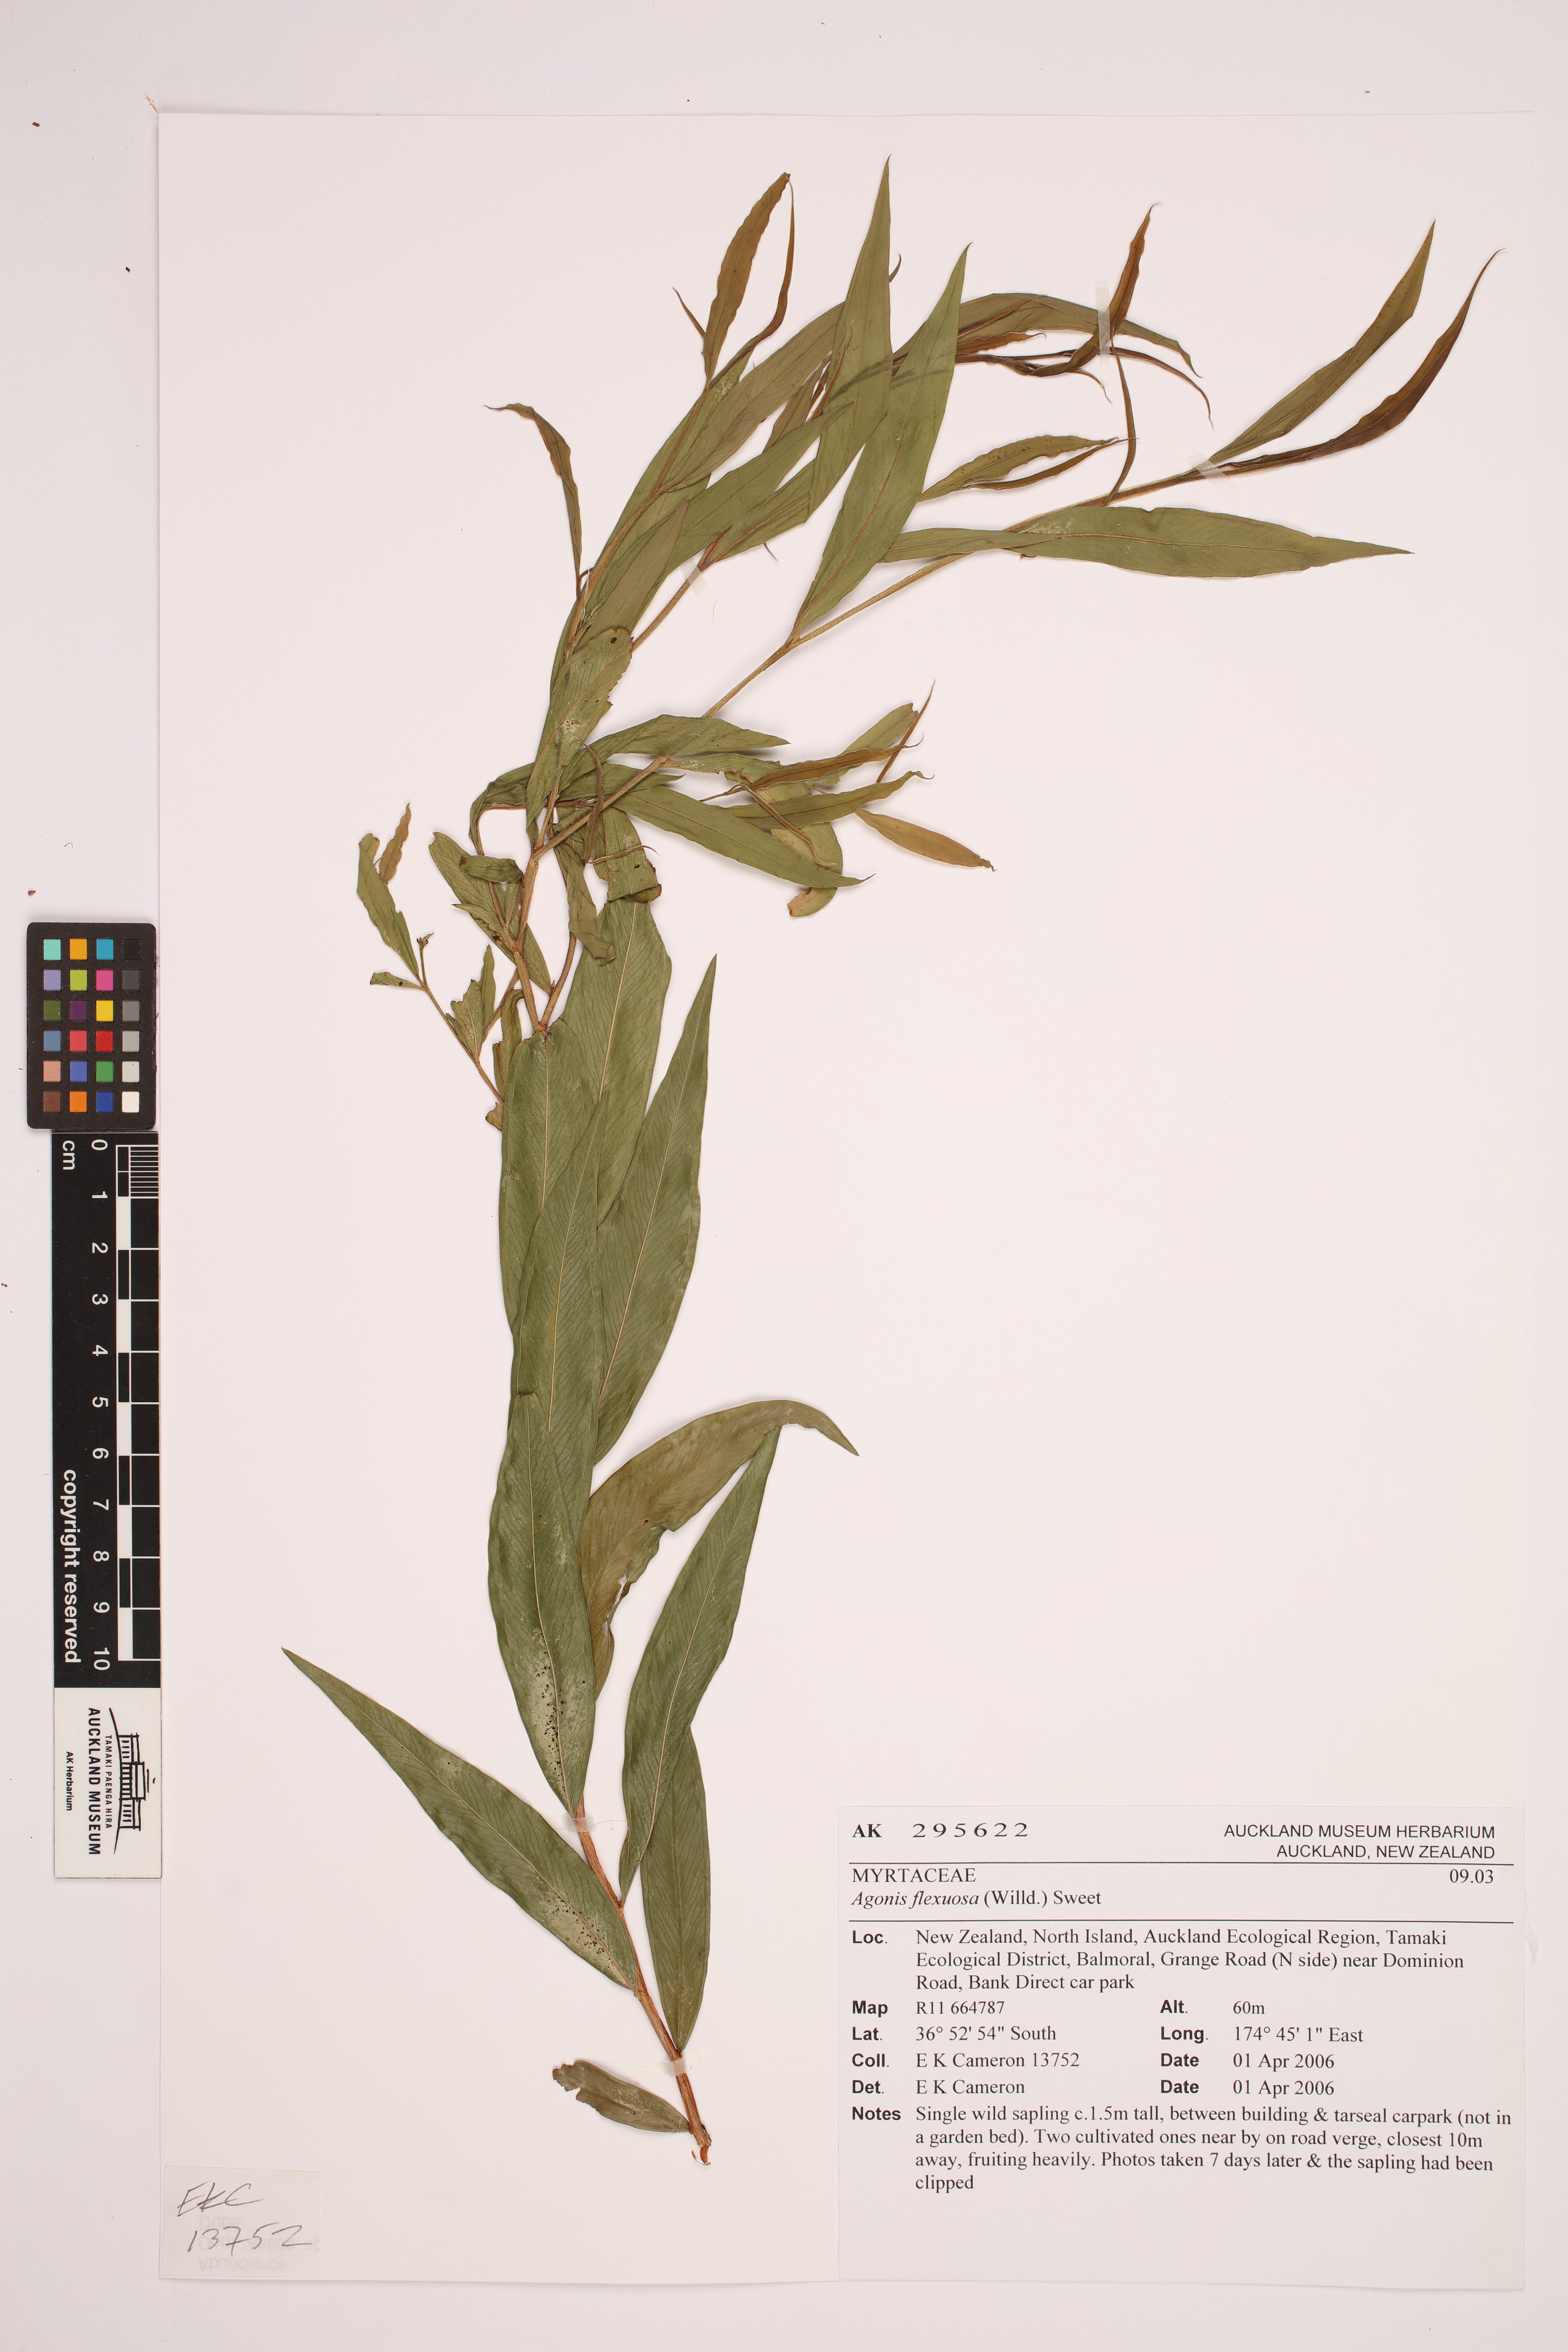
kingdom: Plantae
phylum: Tracheophyta
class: Magnoliopsida
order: Myrtales
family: Myrtaceae
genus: Agonis
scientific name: Agonis flexuosa
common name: Willow myrtle
